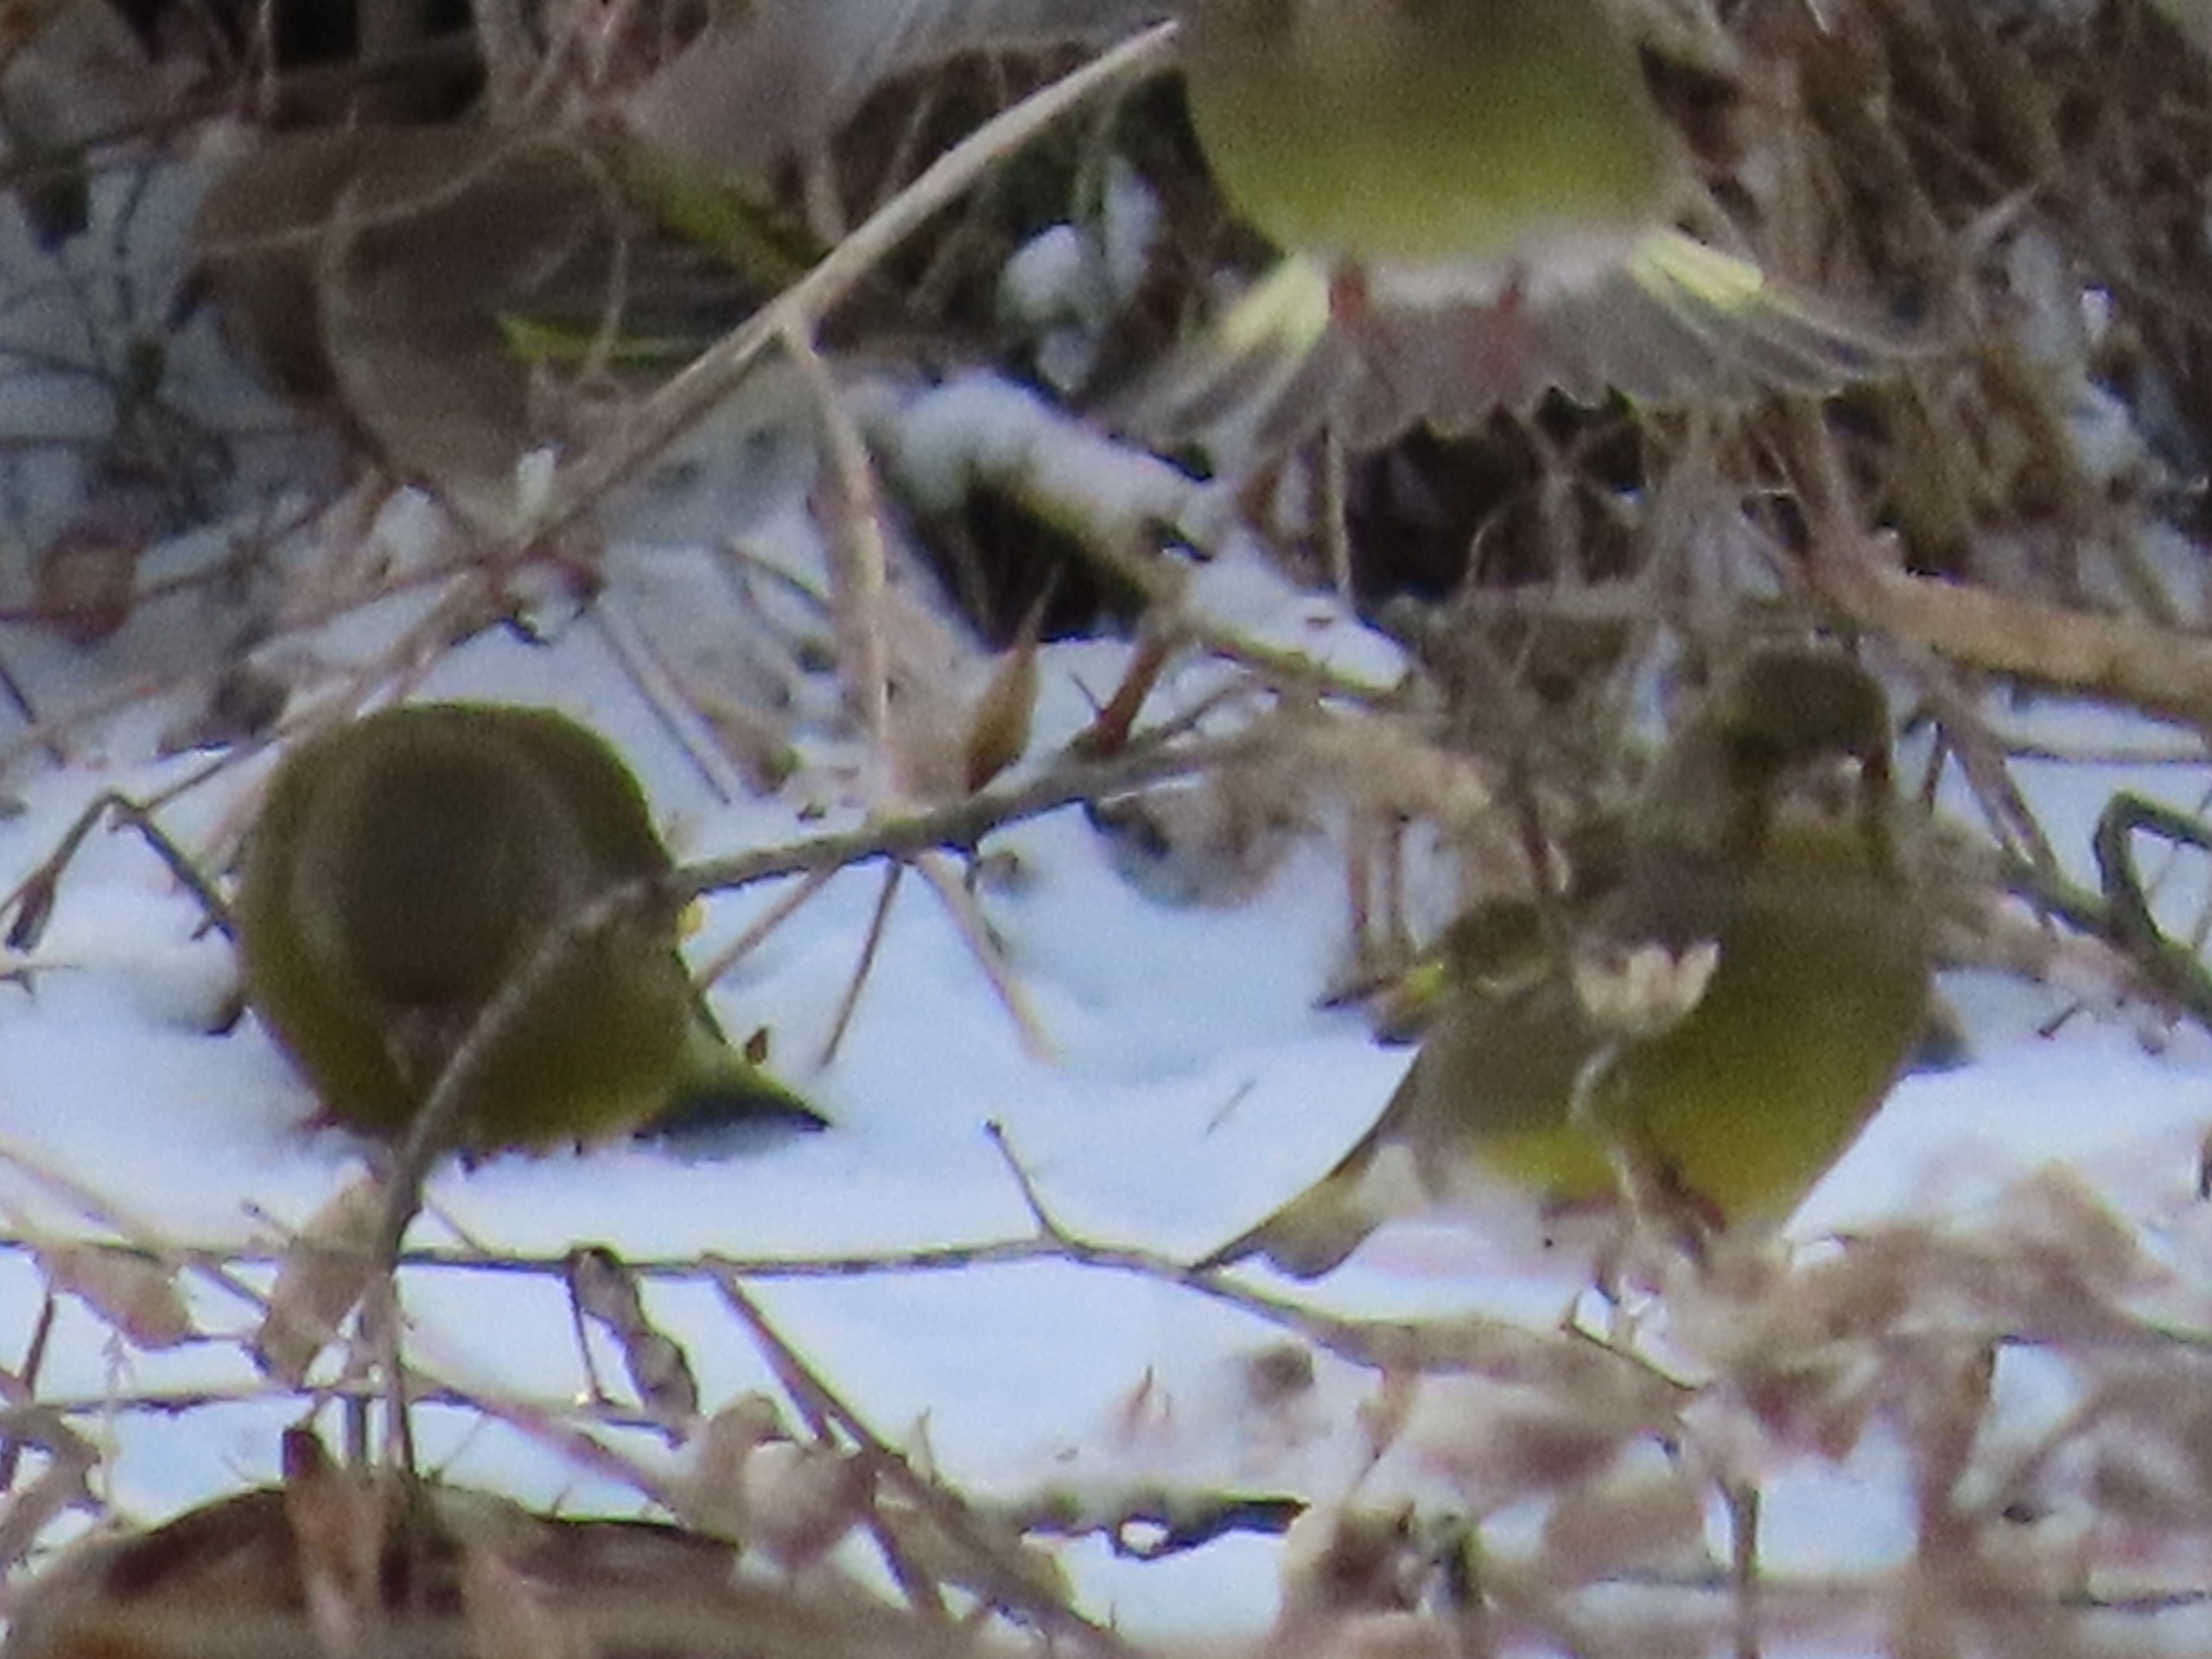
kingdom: Plantae
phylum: Tracheophyta
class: Liliopsida
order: Poales
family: Poaceae
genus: Chloris
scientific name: Chloris chloris
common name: Grønirisk
